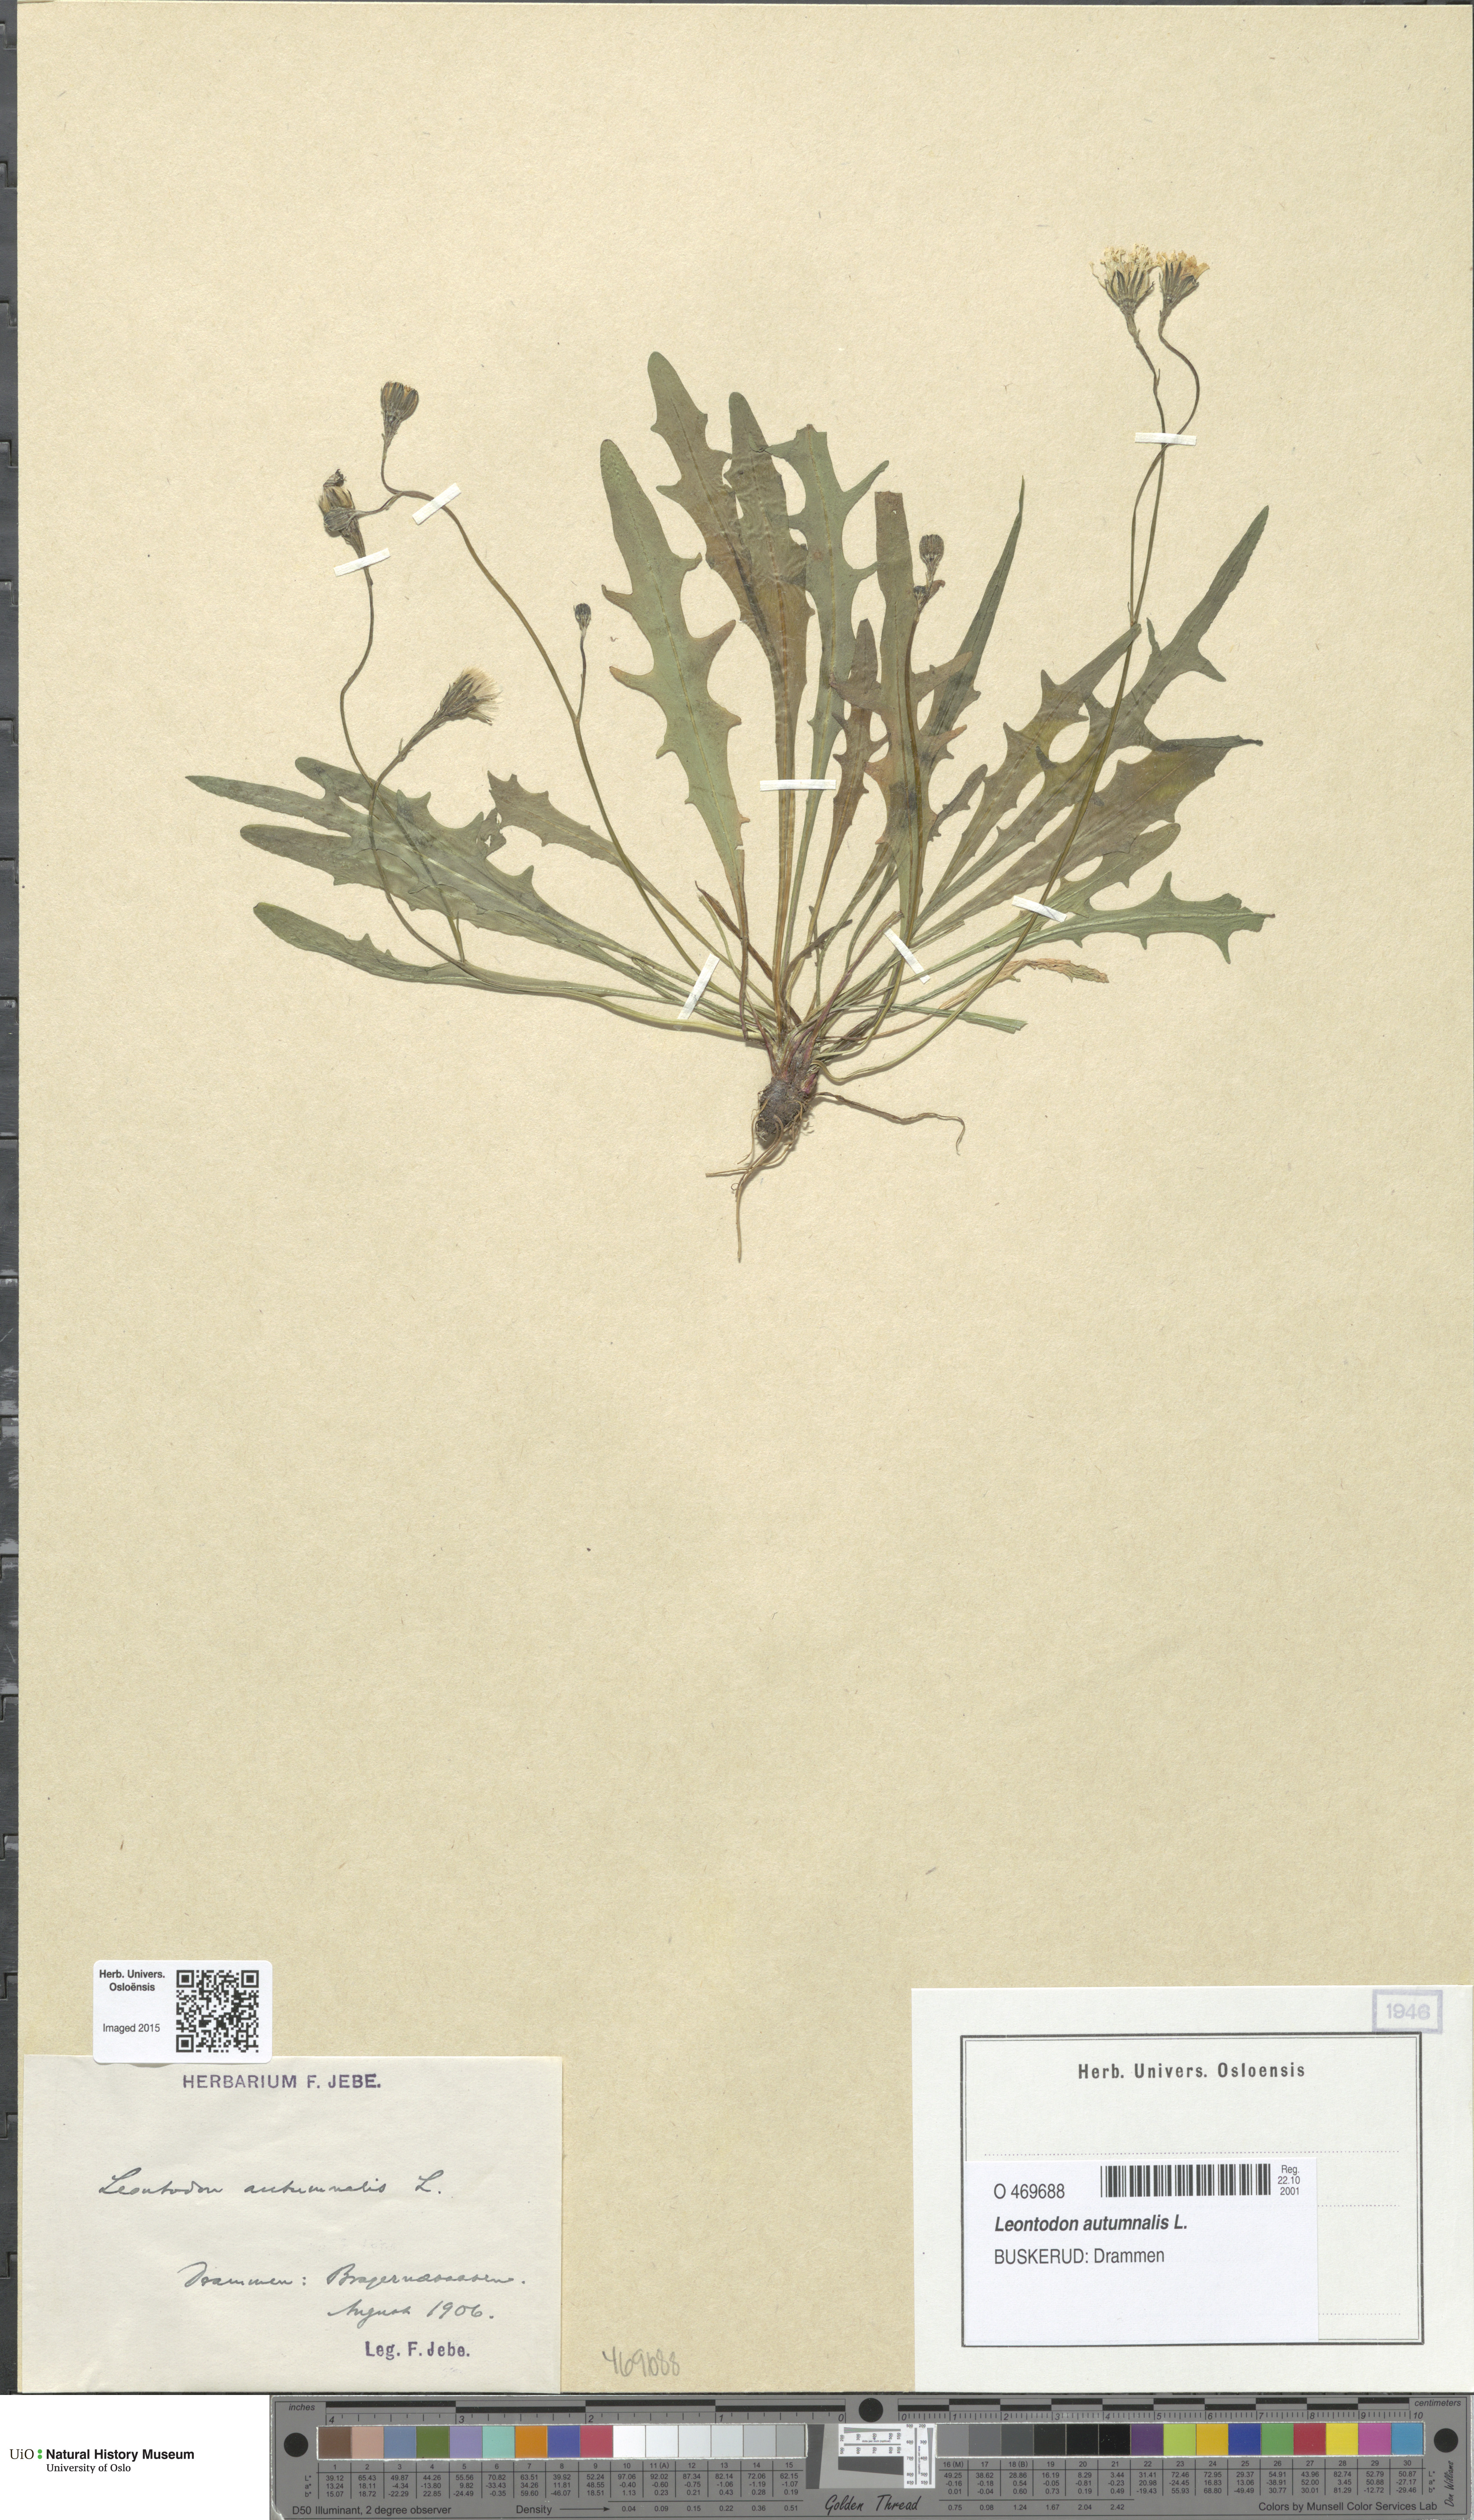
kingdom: Plantae
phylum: Tracheophyta
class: Magnoliopsida
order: Asterales
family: Asteraceae
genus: Scorzoneroides
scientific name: Scorzoneroides autumnalis
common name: Autumn hawkbit
